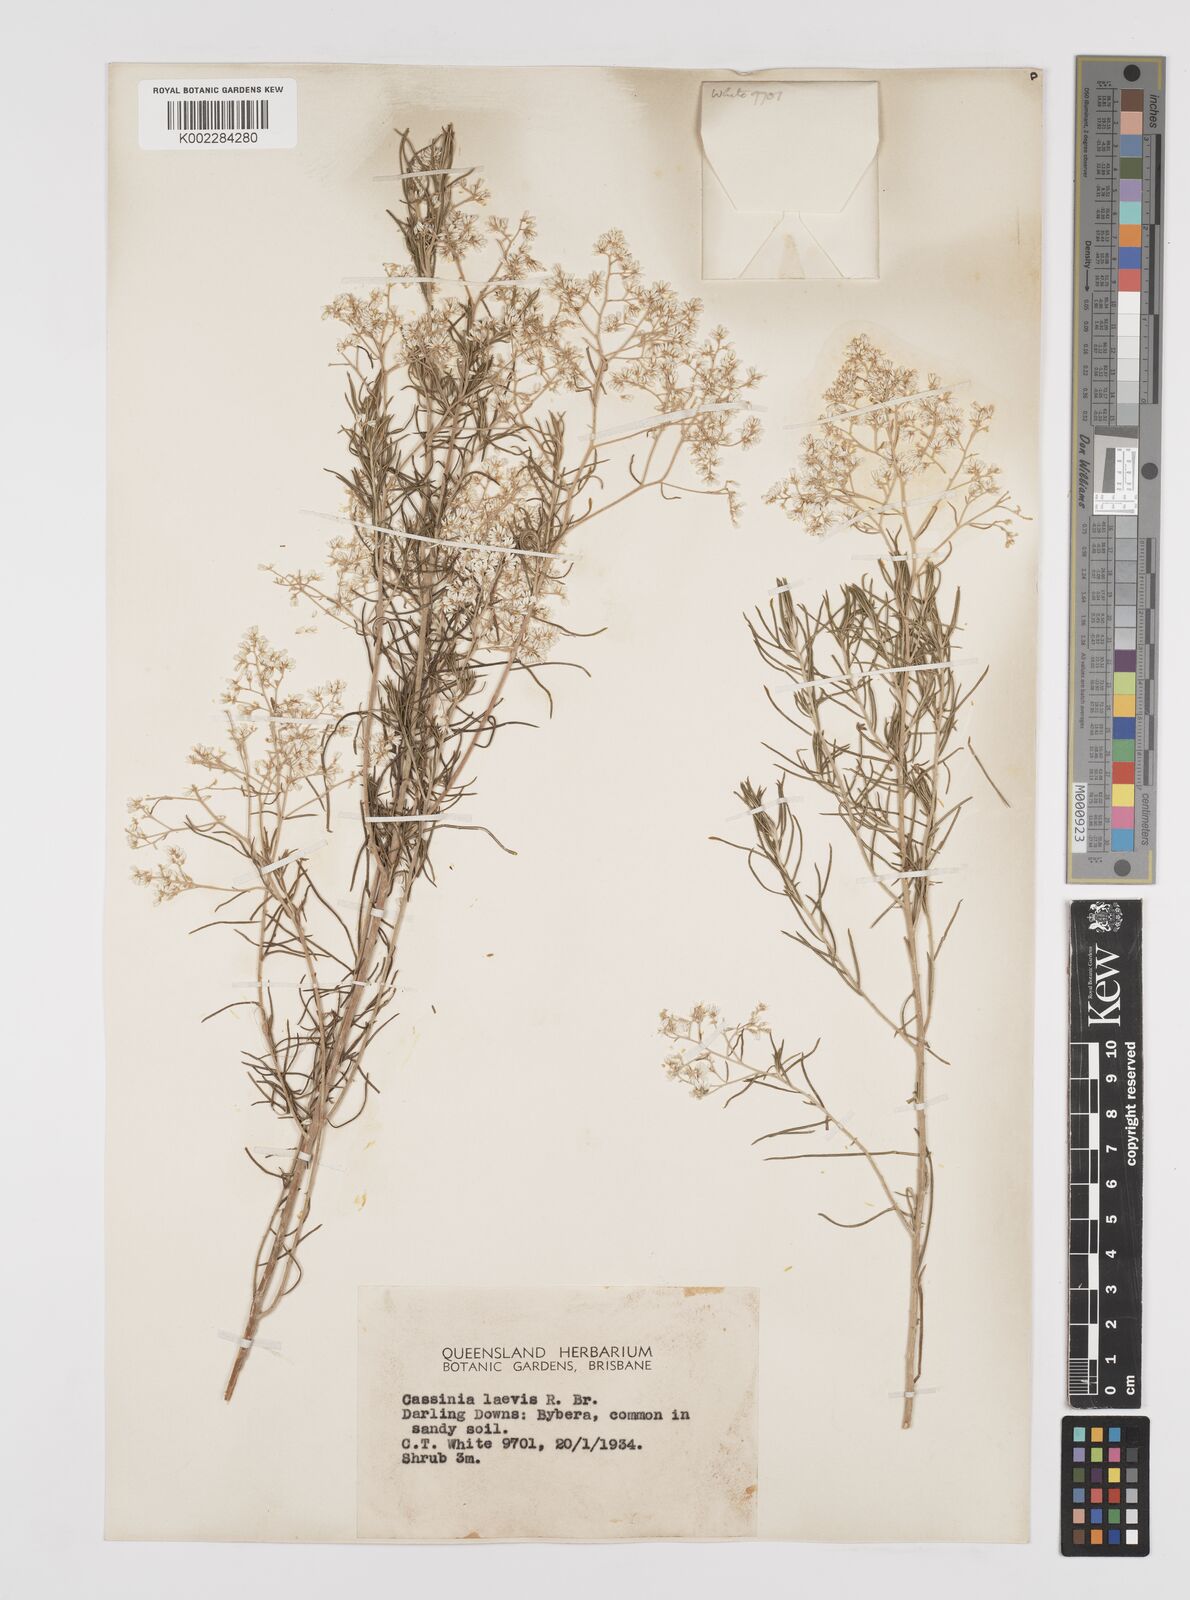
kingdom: Plantae
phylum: Tracheophyta
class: Magnoliopsida
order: Asterales
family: Asteraceae
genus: Cassinia
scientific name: Cassinia laevis
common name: Coughbush
